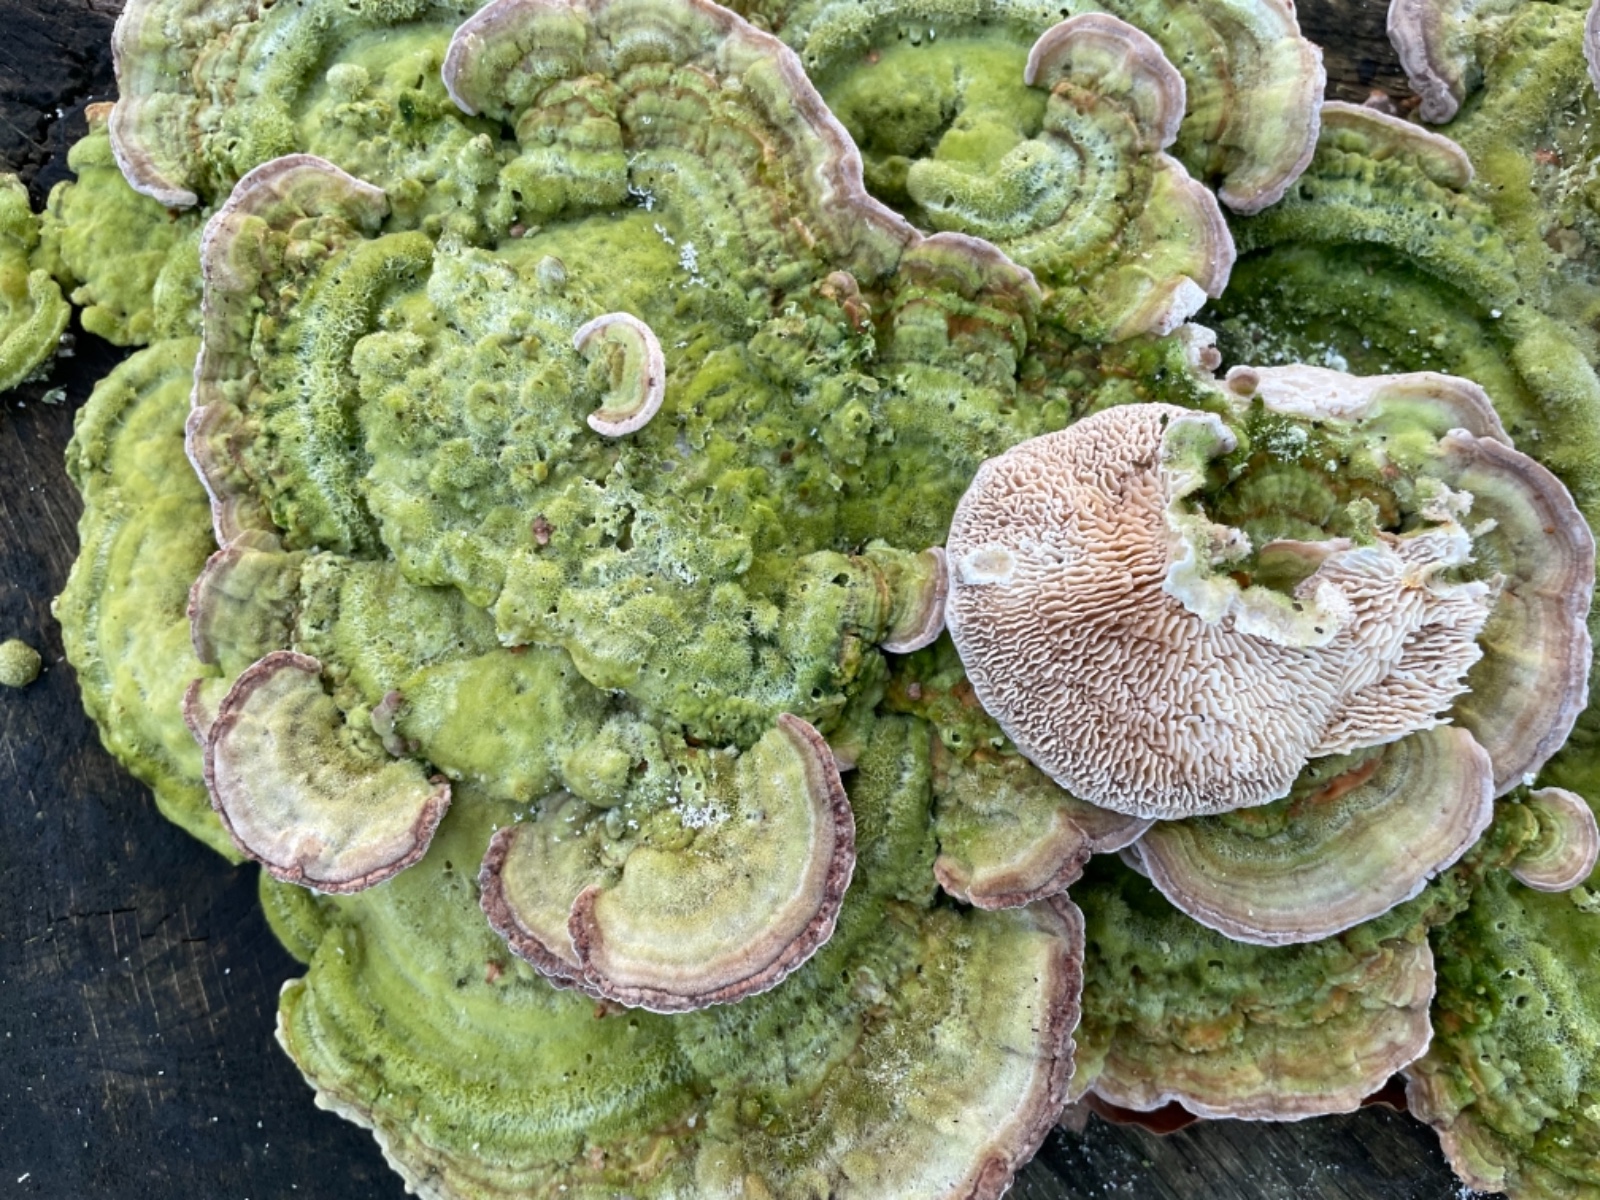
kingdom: Fungi
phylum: Basidiomycota
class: Agaricomycetes
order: Polyporales
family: Polyporaceae
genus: Lenzites
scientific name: Lenzites betulinus
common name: birke-læderporesvamp
